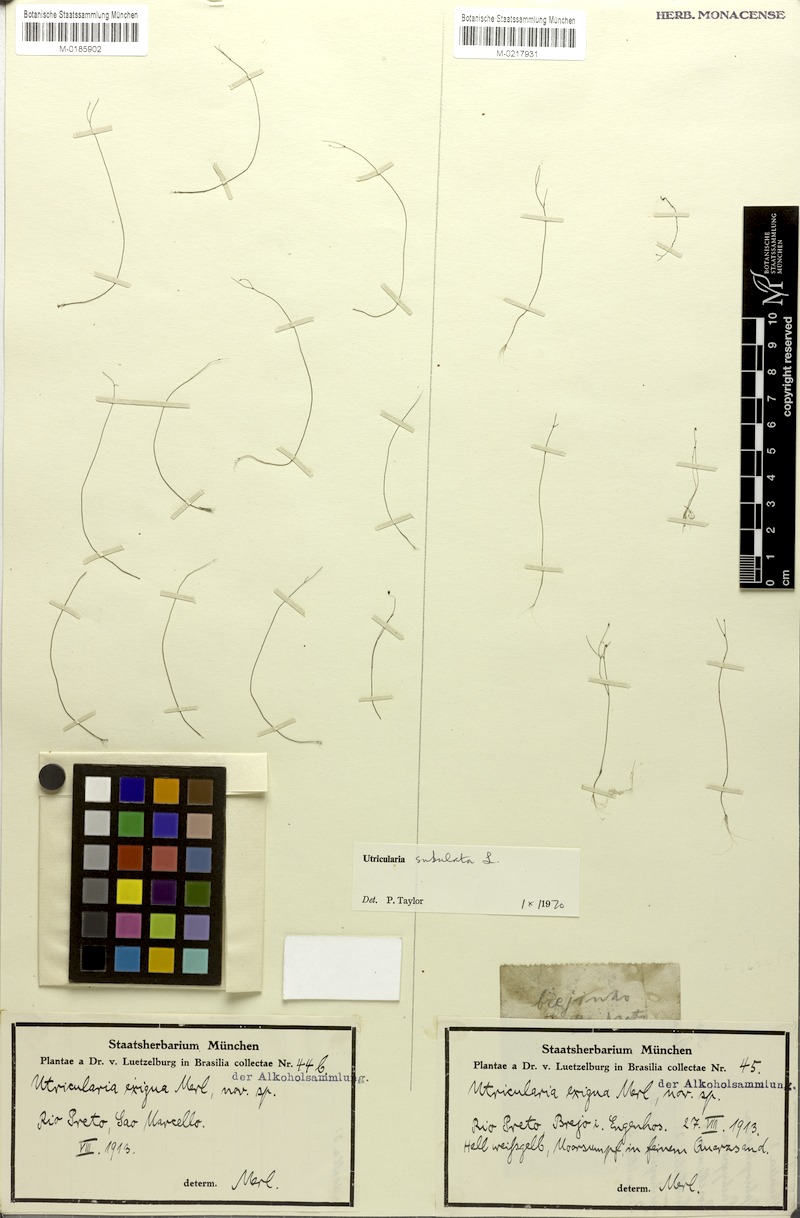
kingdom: Plantae
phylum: Tracheophyta
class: Magnoliopsida
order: Lamiales
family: Lentibulariaceae
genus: Utricularia
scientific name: Utricularia subulata
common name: Tiny bladderwort
